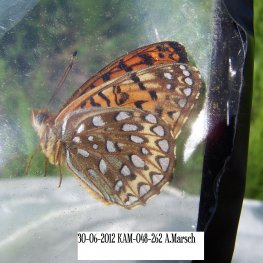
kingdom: Animalia
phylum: Arthropoda
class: Insecta
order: Lepidoptera
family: Nymphalidae
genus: Speyeria
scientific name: Speyeria atlantis
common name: Atlantis Fritillary
